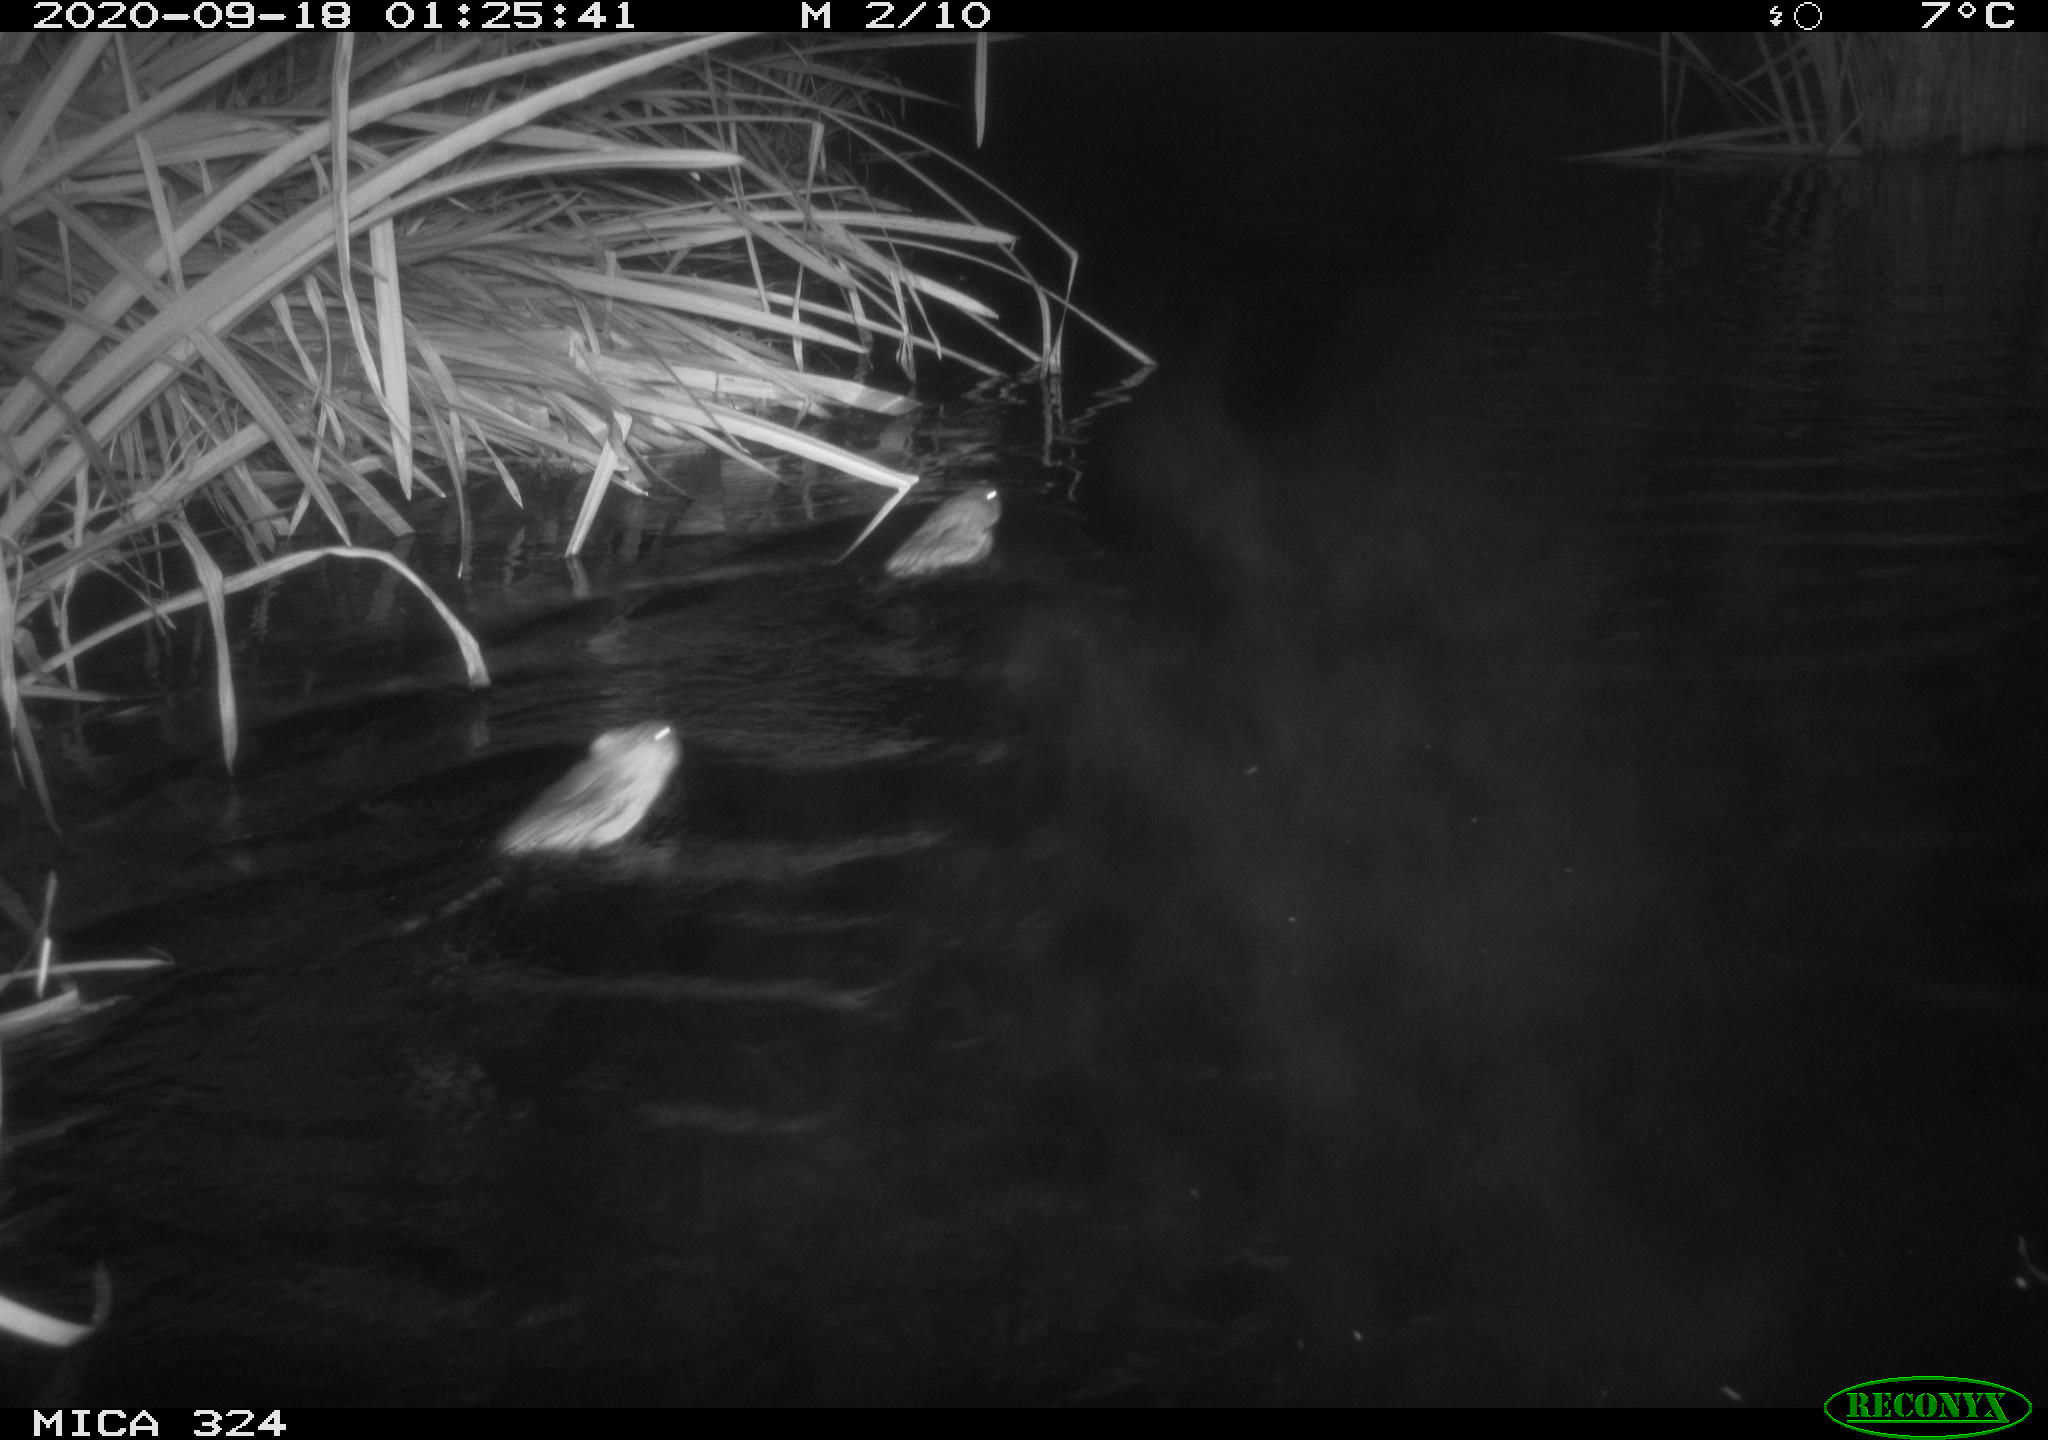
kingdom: Animalia
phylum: Chordata
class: Mammalia
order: Rodentia
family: Cricetidae
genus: Ondatra
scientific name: Ondatra zibethicus
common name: Muskrat
